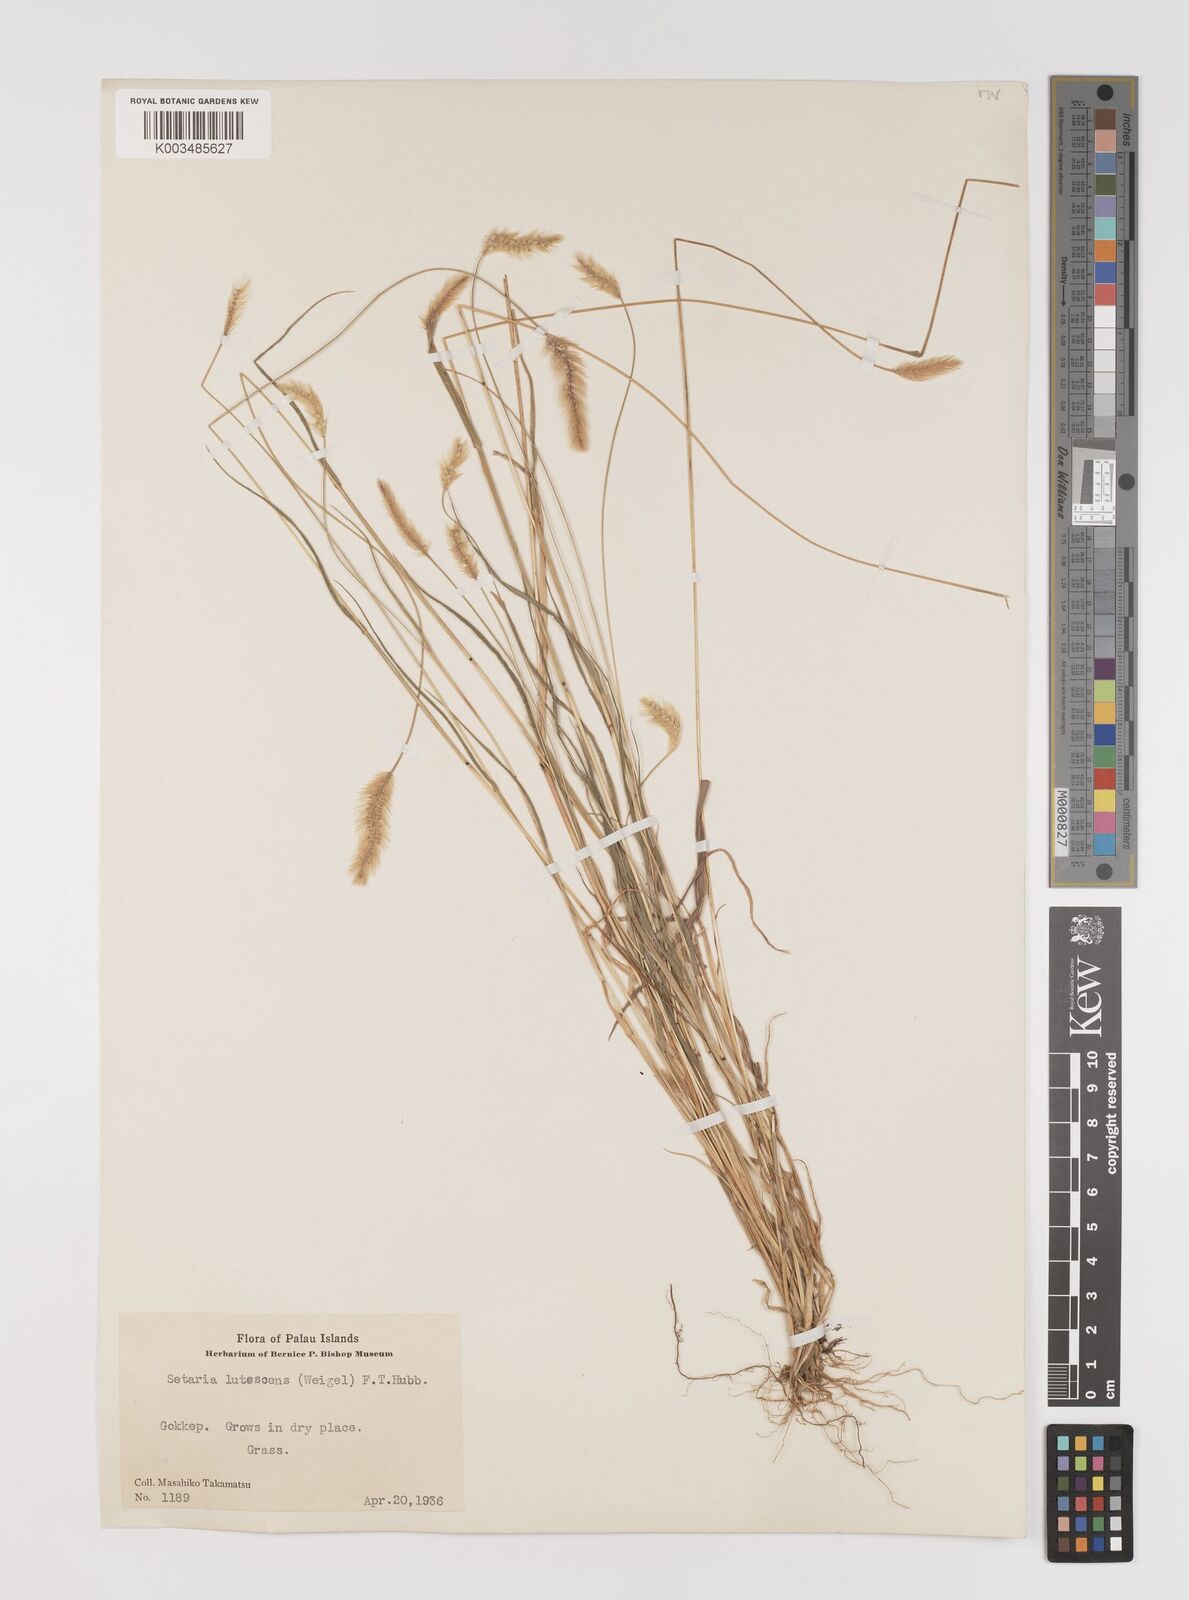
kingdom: Plantae
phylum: Tracheophyta
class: Liliopsida
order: Poales
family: Poaceae
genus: Setaria
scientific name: Setaria pumila
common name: Yellow bristle-grass
